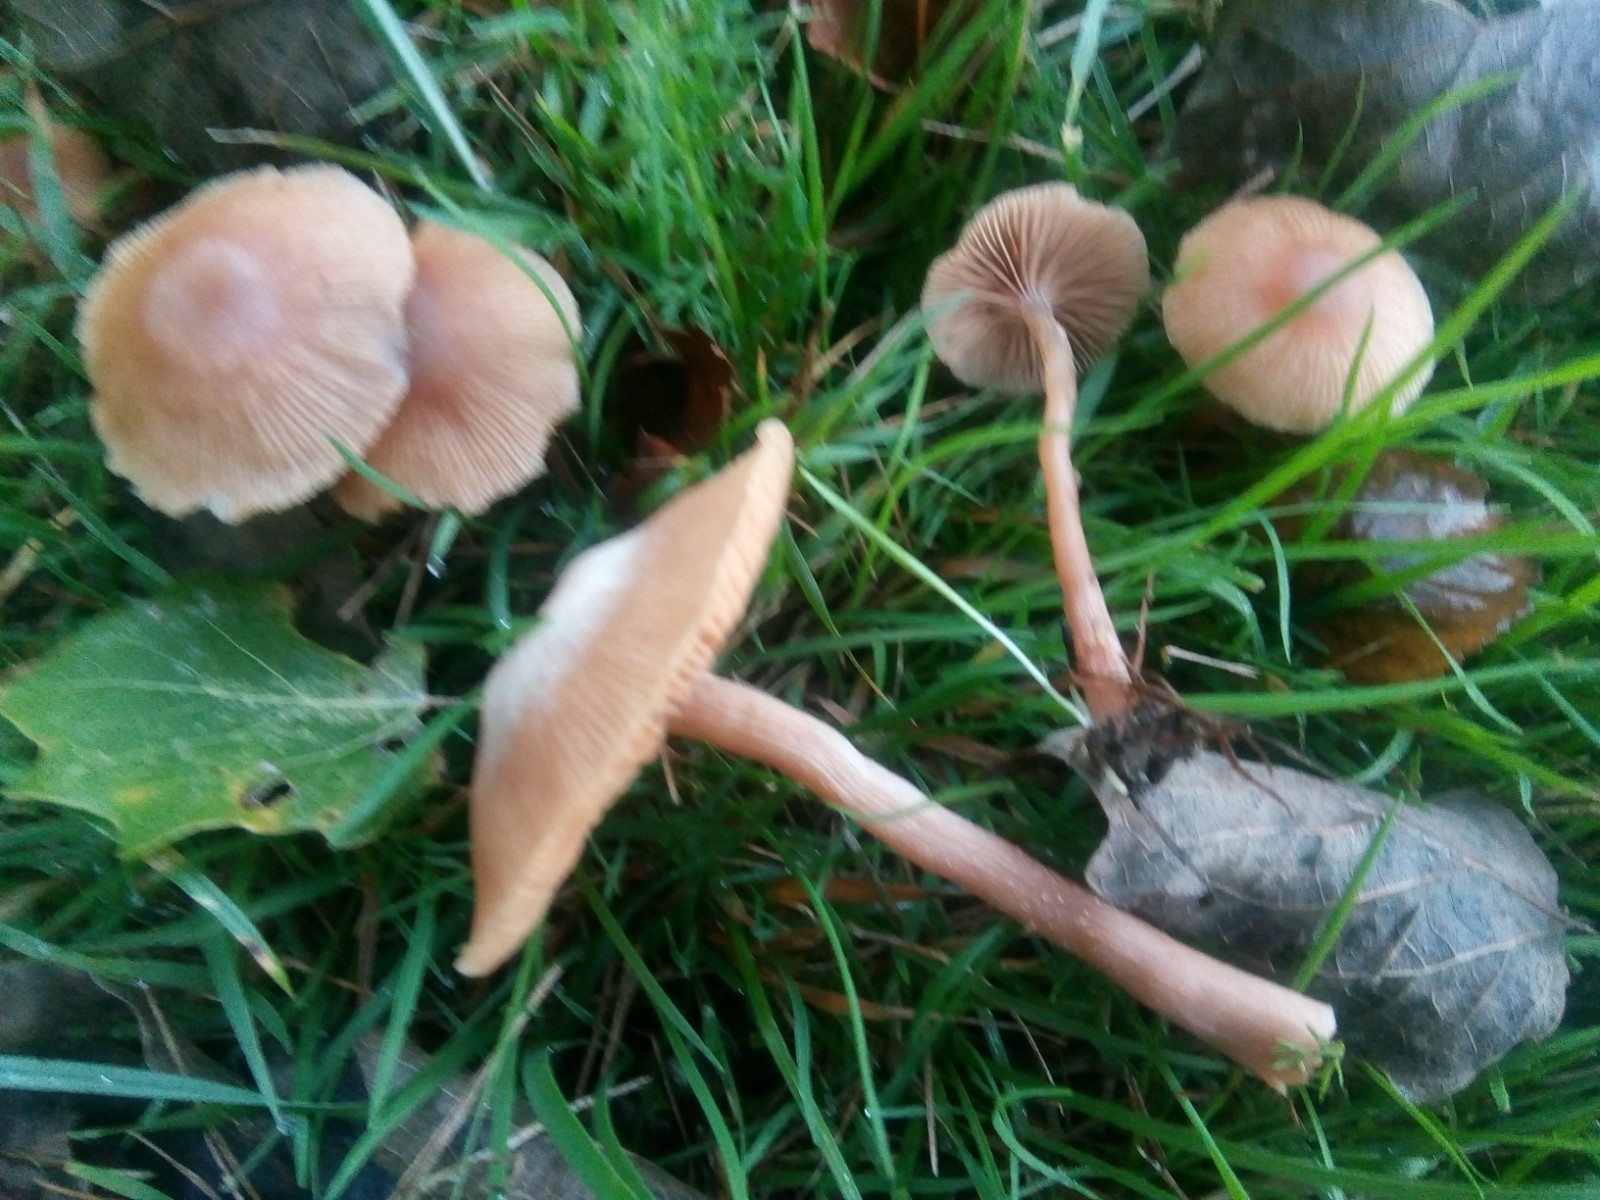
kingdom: Fungi
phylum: Basidiomycota
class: Agaricomycetes
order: Agaricales
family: Tubariaceae
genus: Tubaria
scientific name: Tubaria furfuracea
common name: kliddet fnughat
